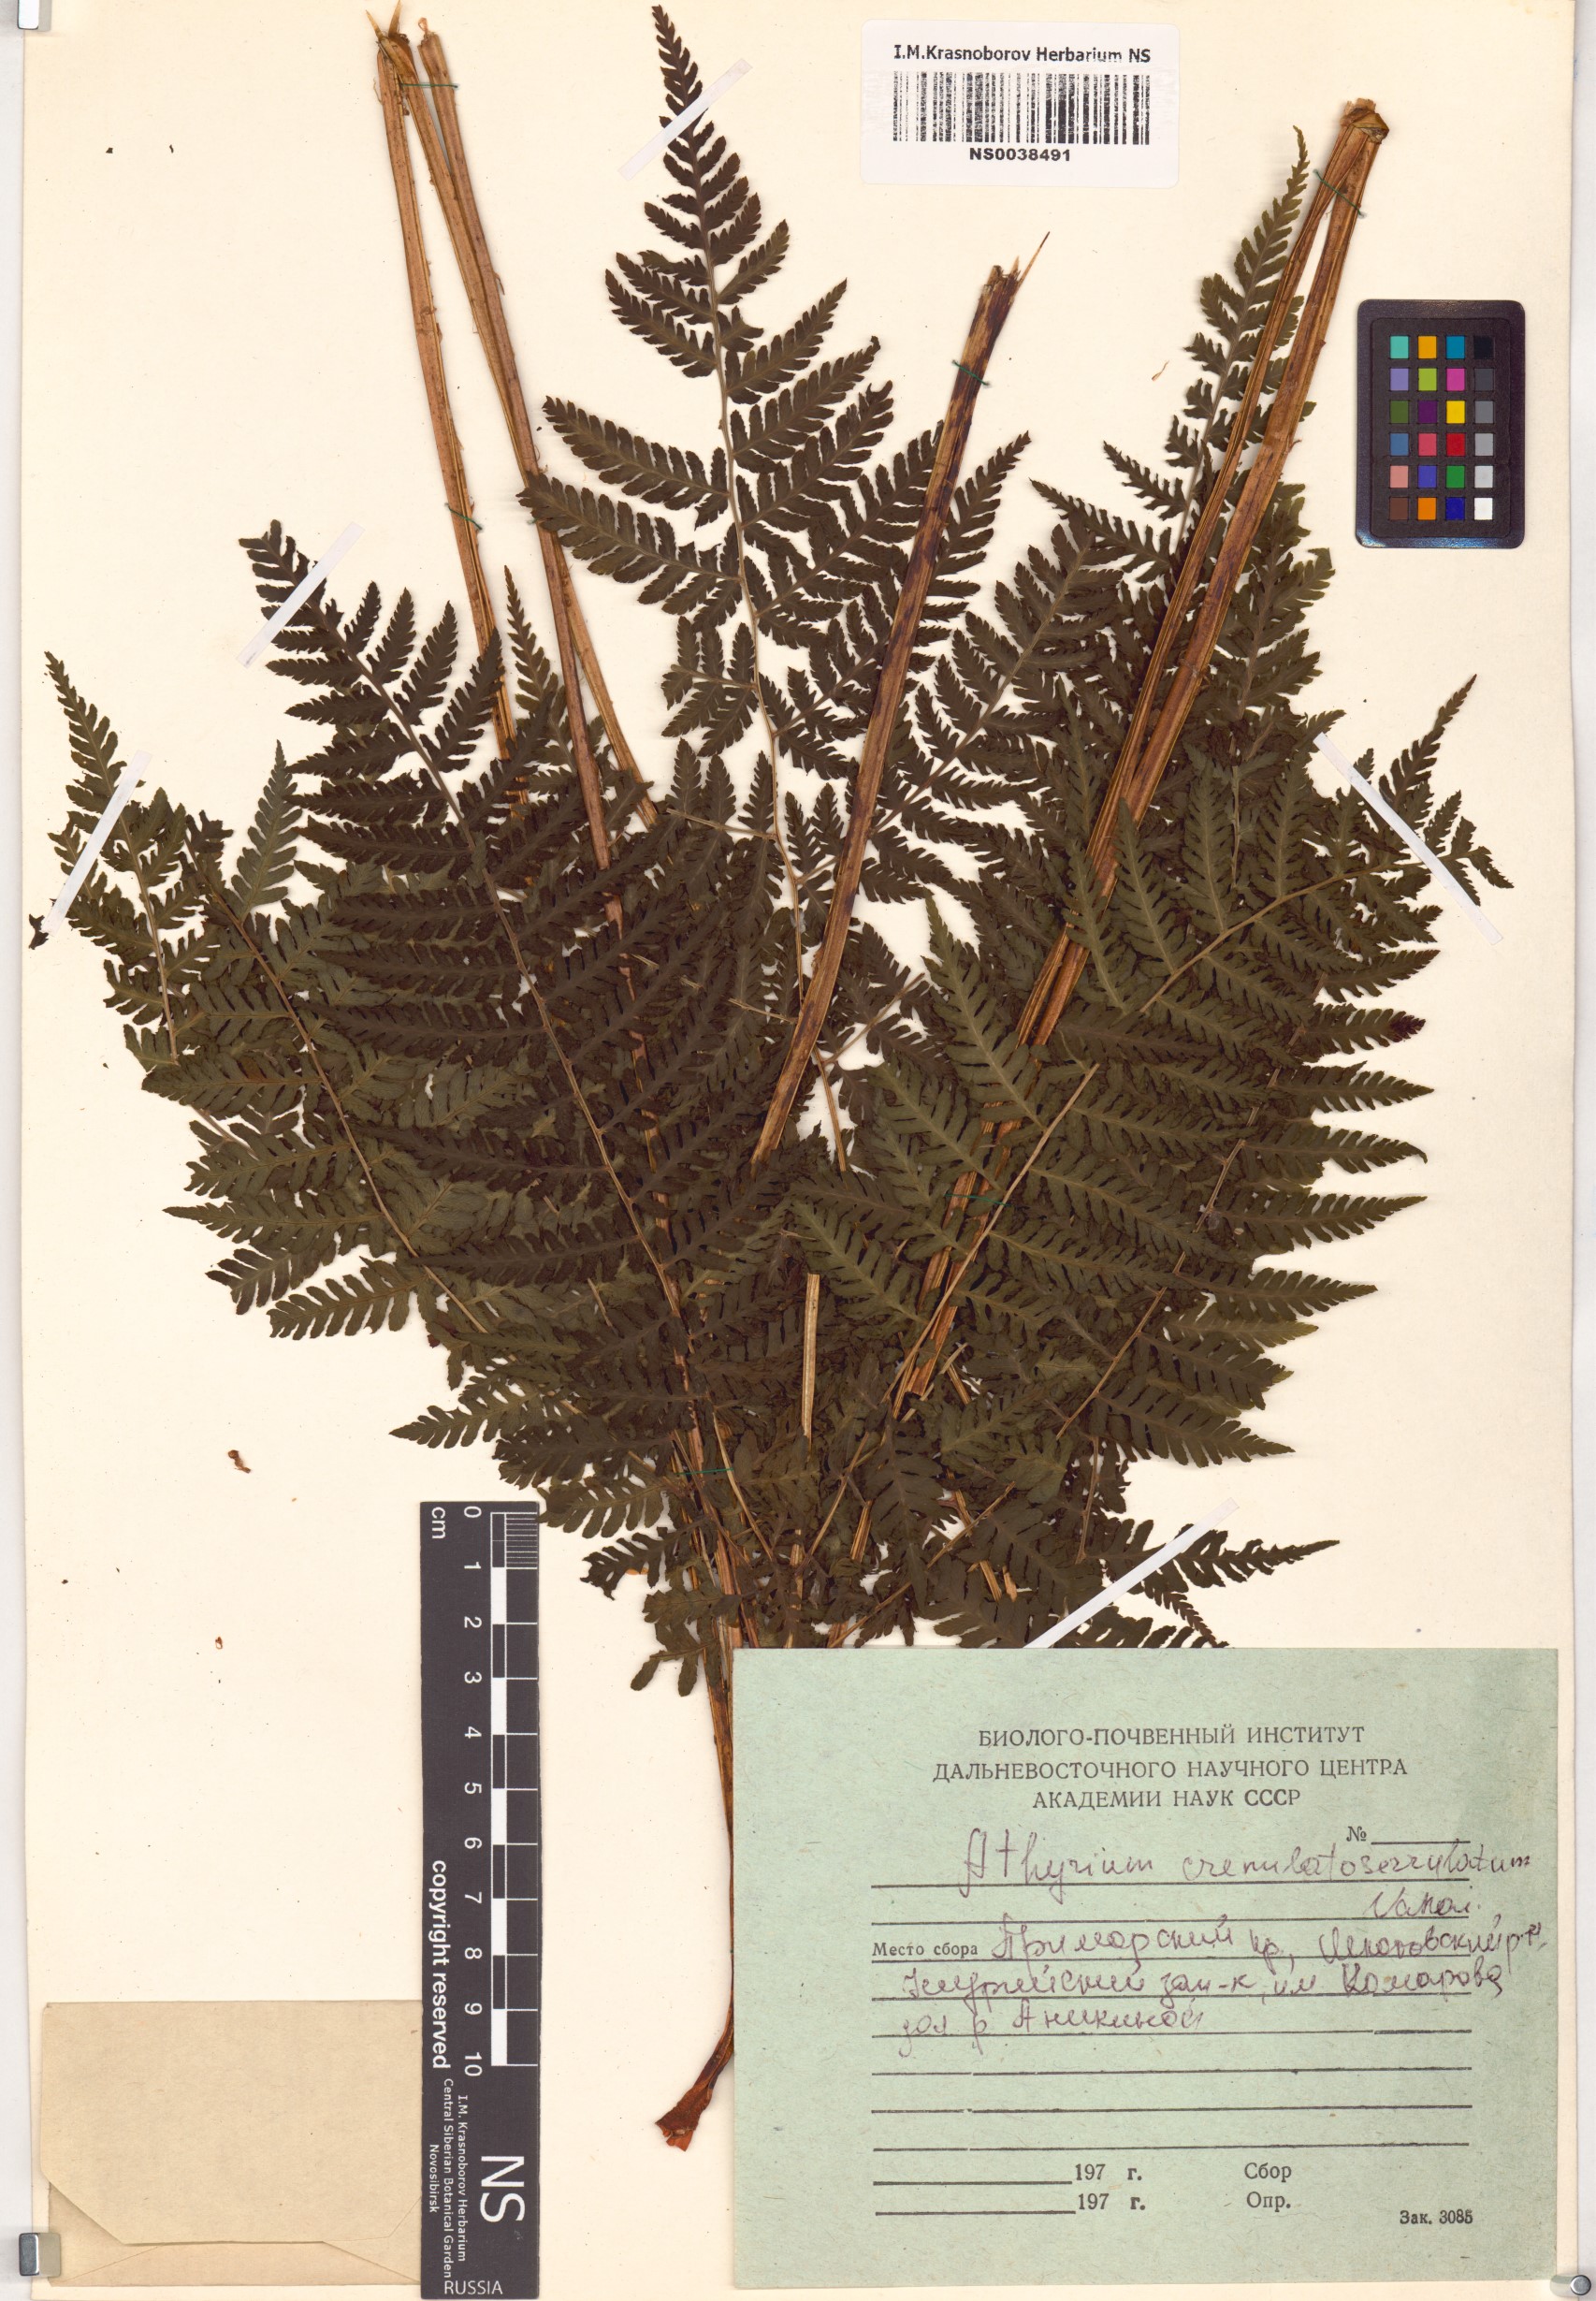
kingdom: Plantae
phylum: Tracheophyta
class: Polypodiopsida
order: Polypodiales
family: Athyriaceae
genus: Cornopteris
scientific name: Cornopteris crenulatoserrulata
